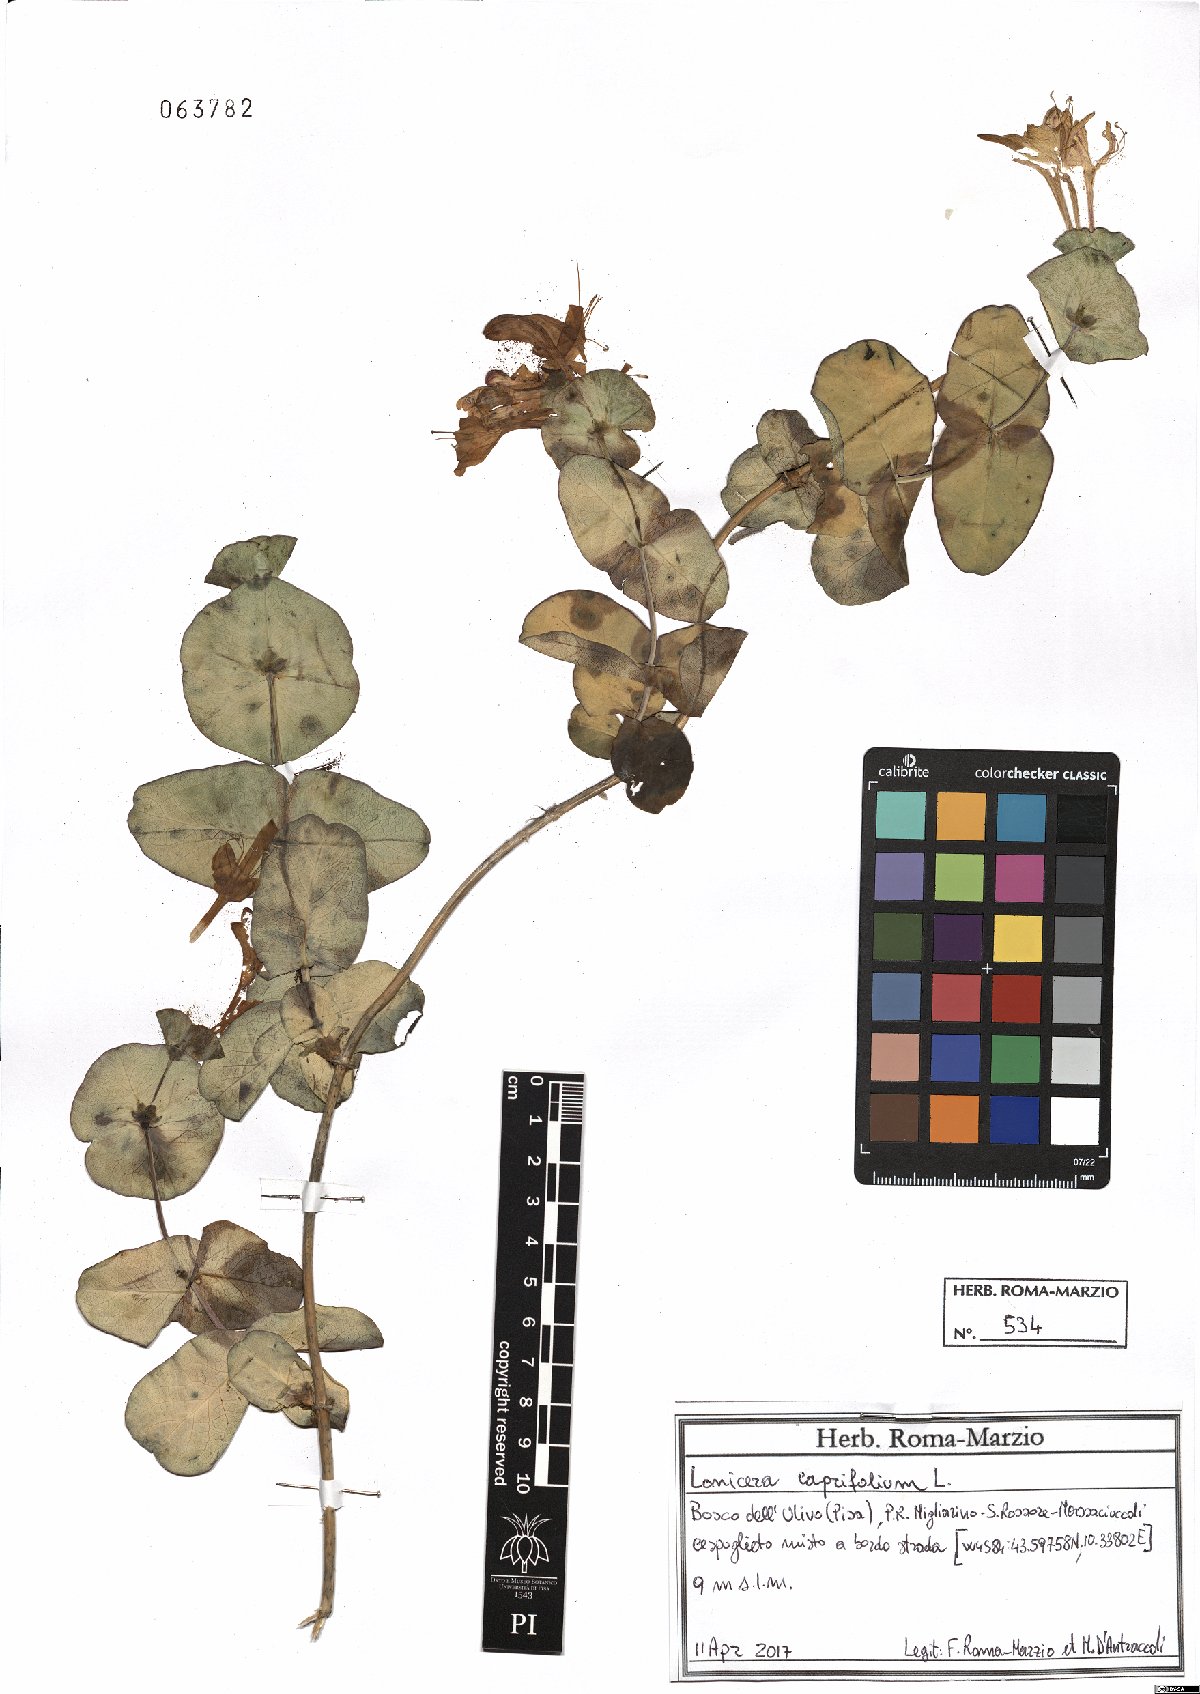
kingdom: Plantae
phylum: Tracheophyta
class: Magnoliopsida
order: Dipsacales
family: Caprifoliaceae
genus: Lonicera
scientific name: Lonicera caprifolium
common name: Perfoliate honeysuckle
